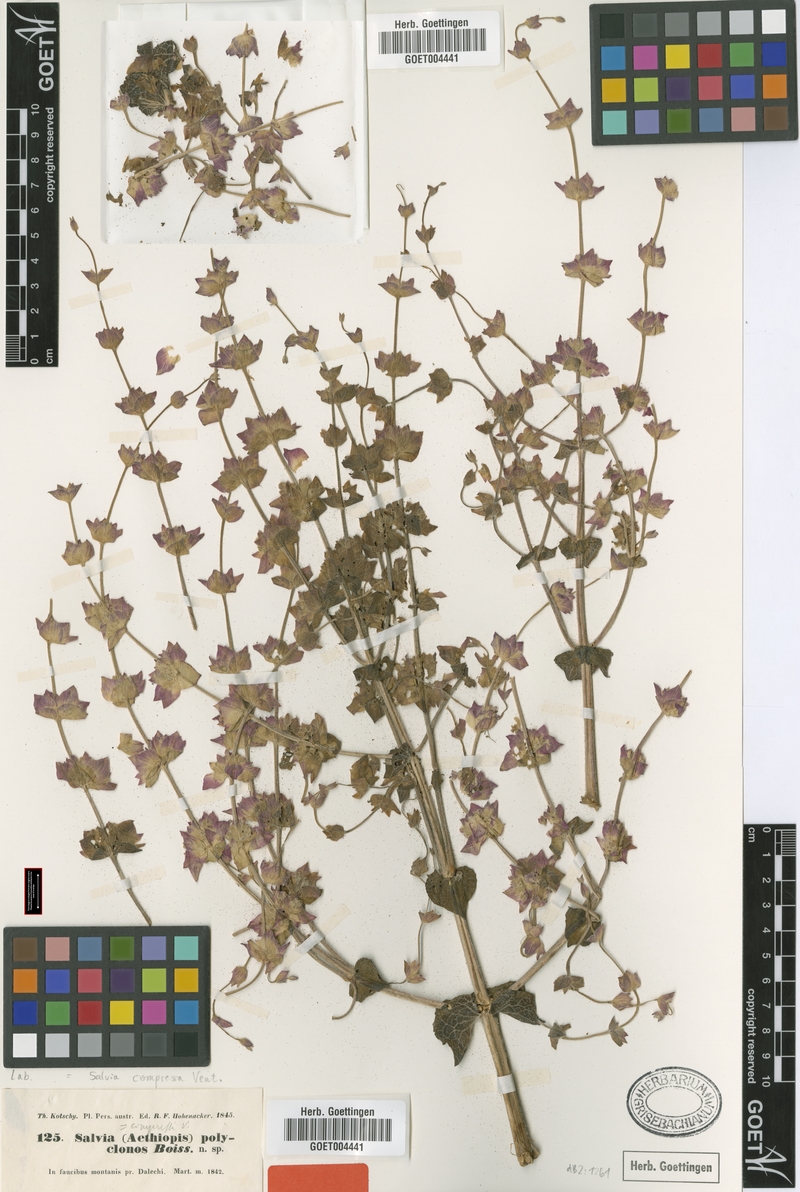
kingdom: Plantae
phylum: Tracheophyta
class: Magnoliopsida
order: Lamiales
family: Lamiaceae
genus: Salvia
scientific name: Salvia compressa
